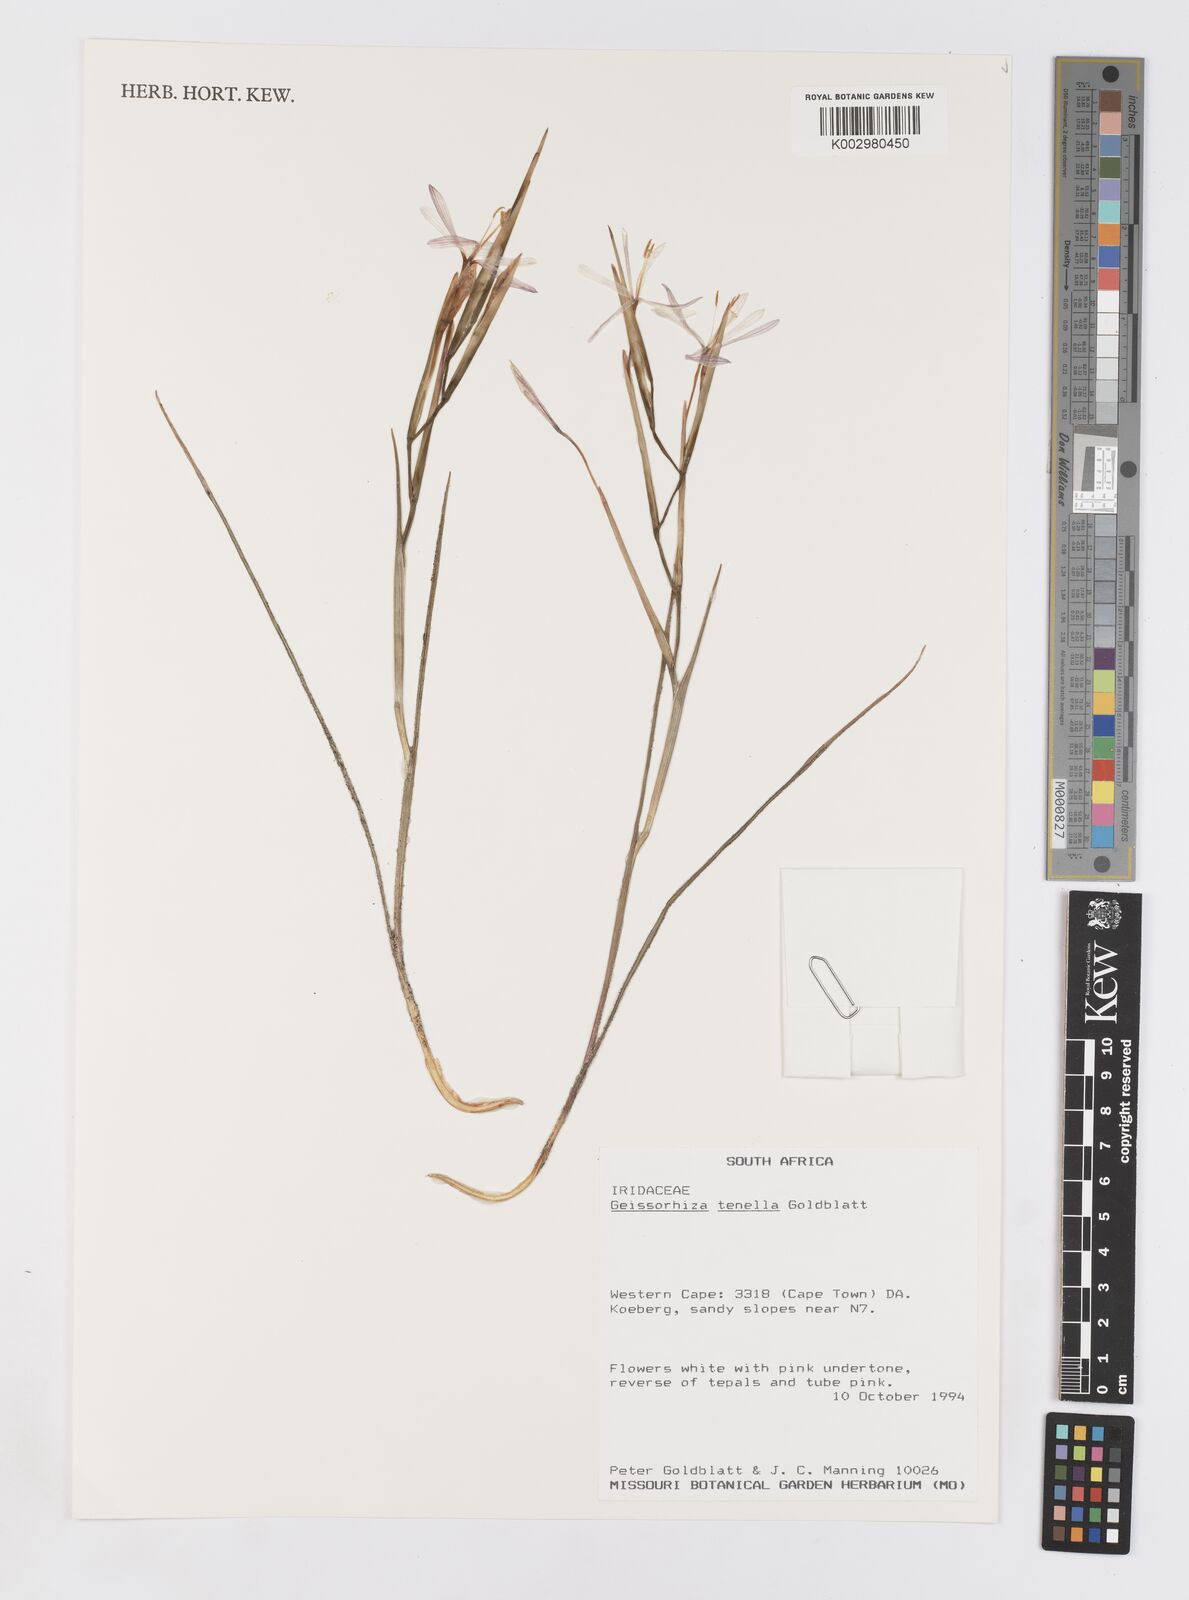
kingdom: Plantae
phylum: Tracheophyta
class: Liliopsida
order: Asparagales
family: Iridaceae
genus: Geissorhiza
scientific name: Geissorhiza tenella
